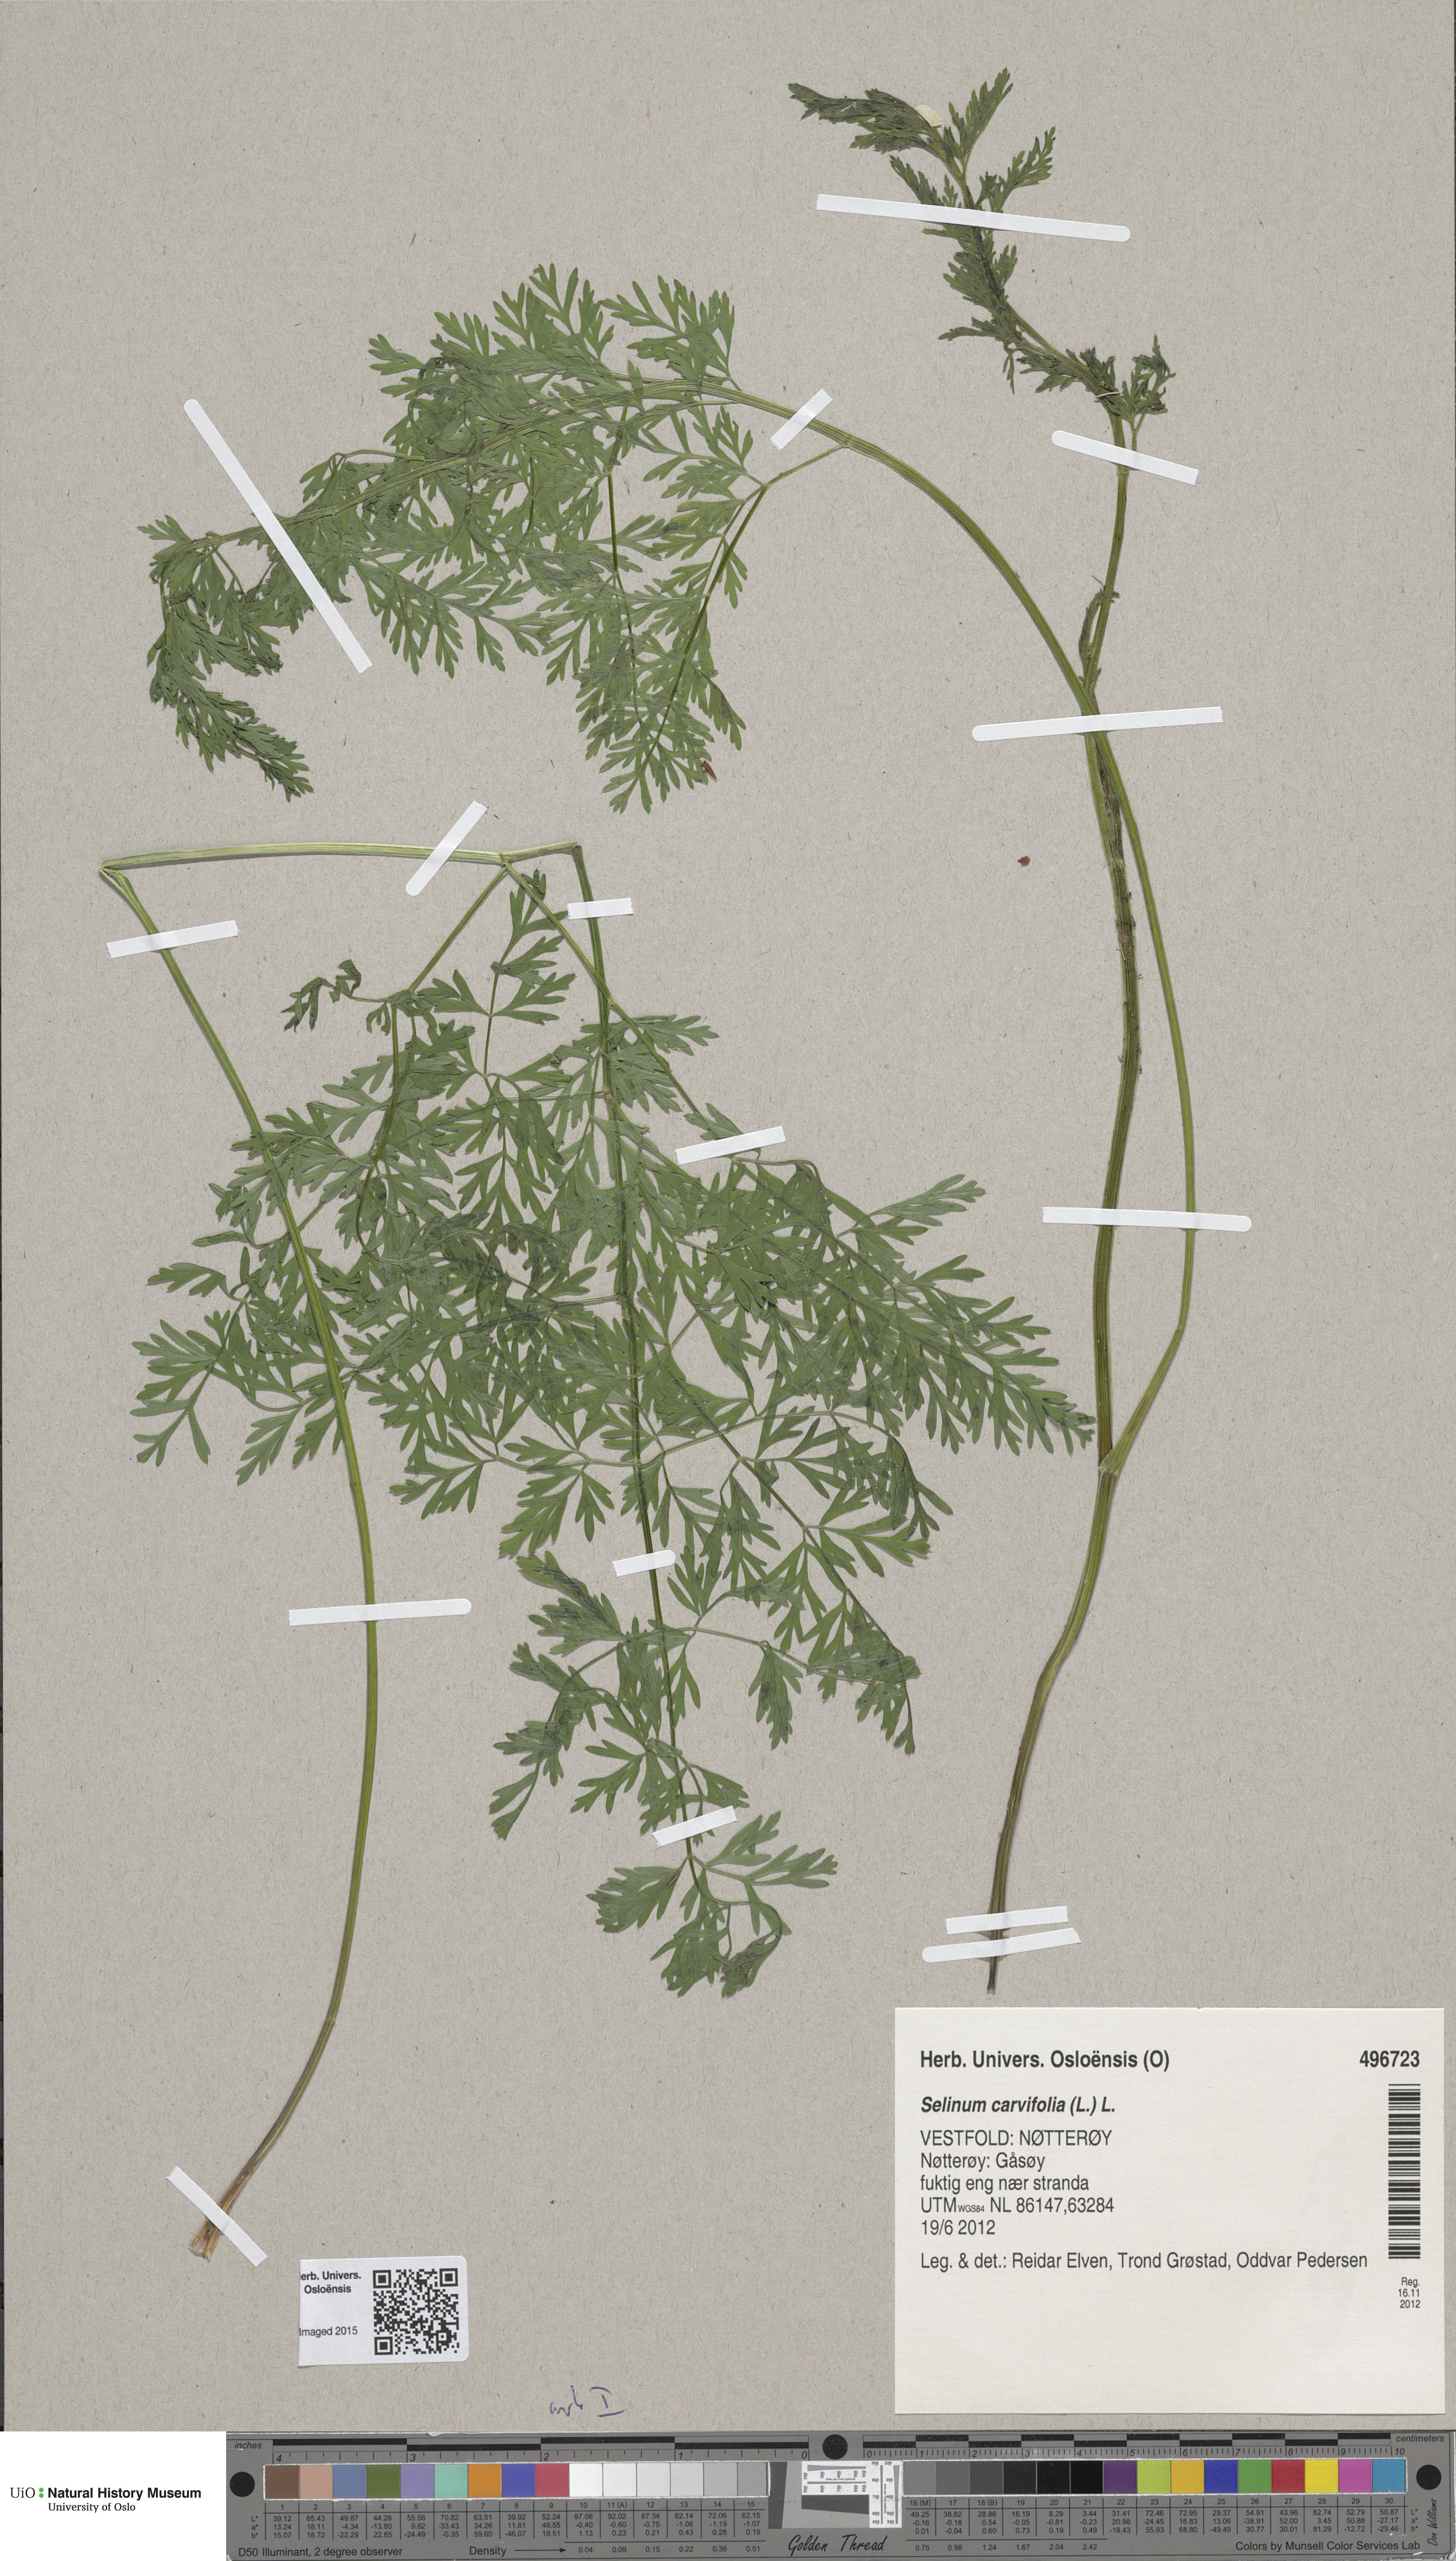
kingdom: Plantae
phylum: Tracheophyta
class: Magnoliopsida
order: Apiales
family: Apiaceae
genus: Selinum
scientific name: Selinum carvifolia
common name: Cambridge milk-parsley
